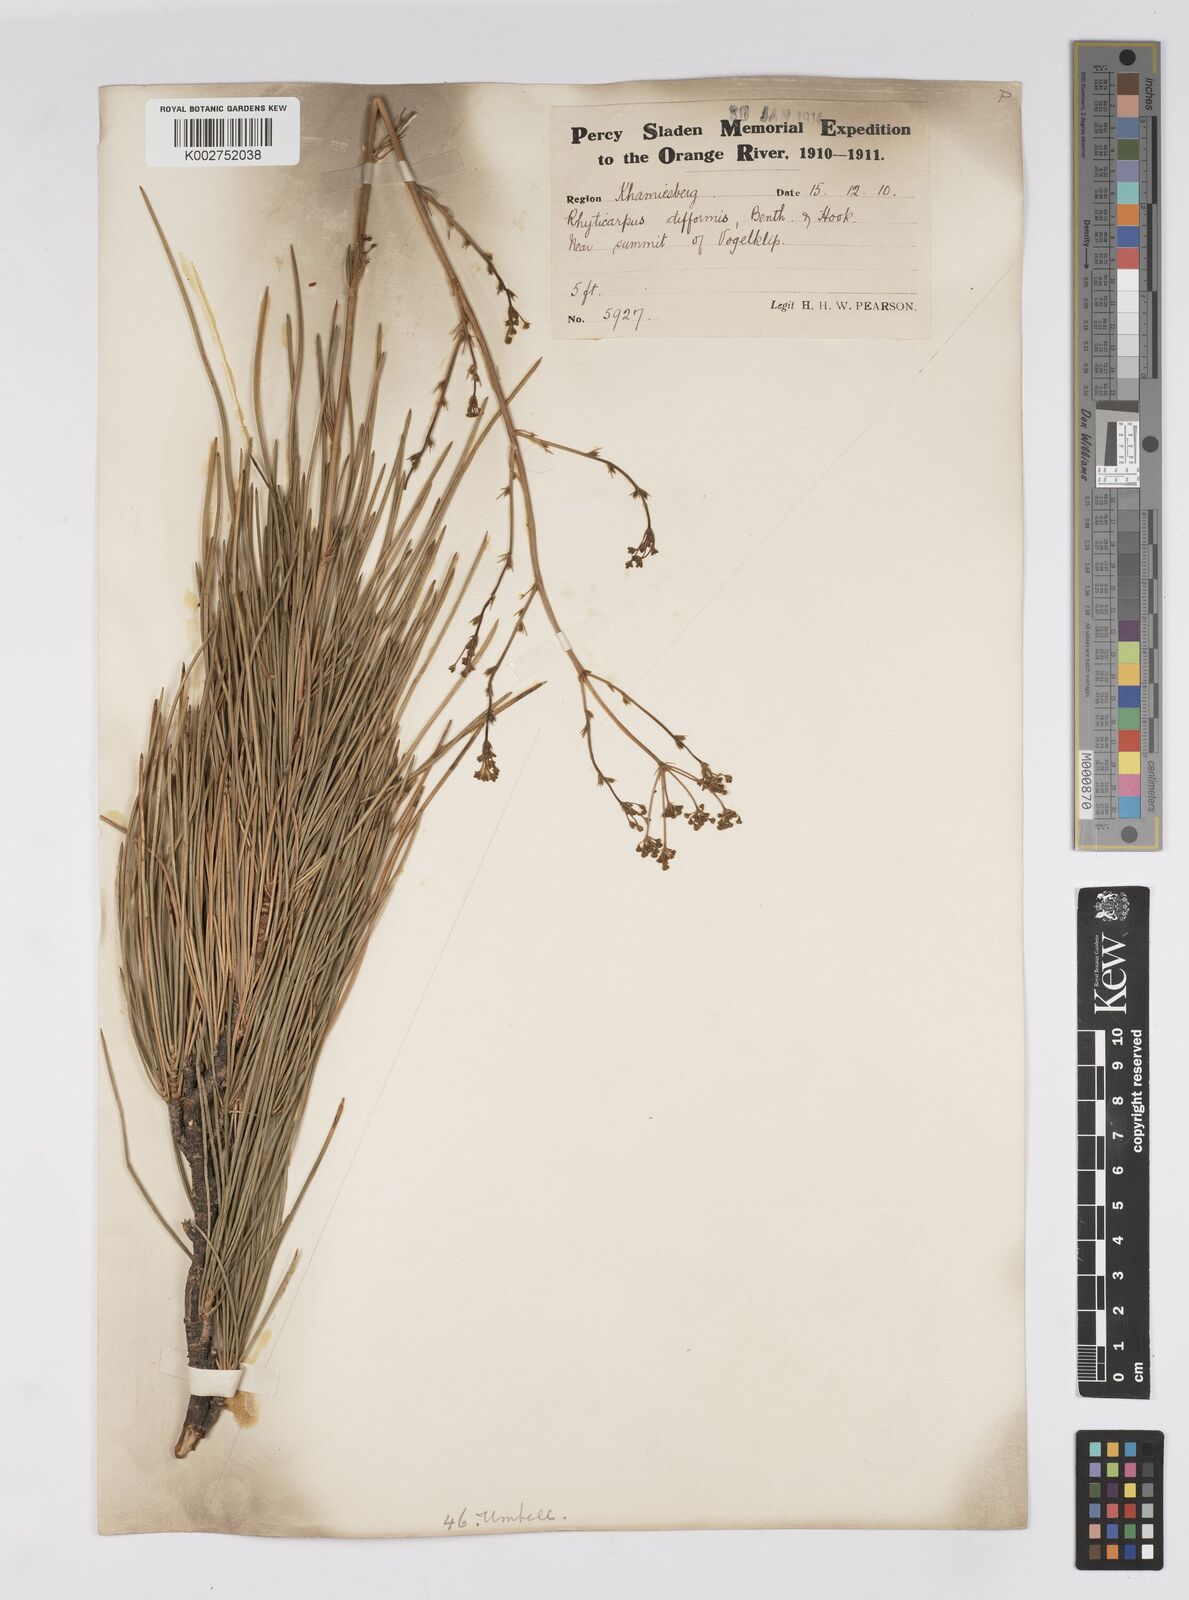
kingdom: Plantae
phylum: Tracheophyta
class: Magnoliopsida
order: Apiales
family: Apiaceae
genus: Anginon
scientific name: Anginon difforme
